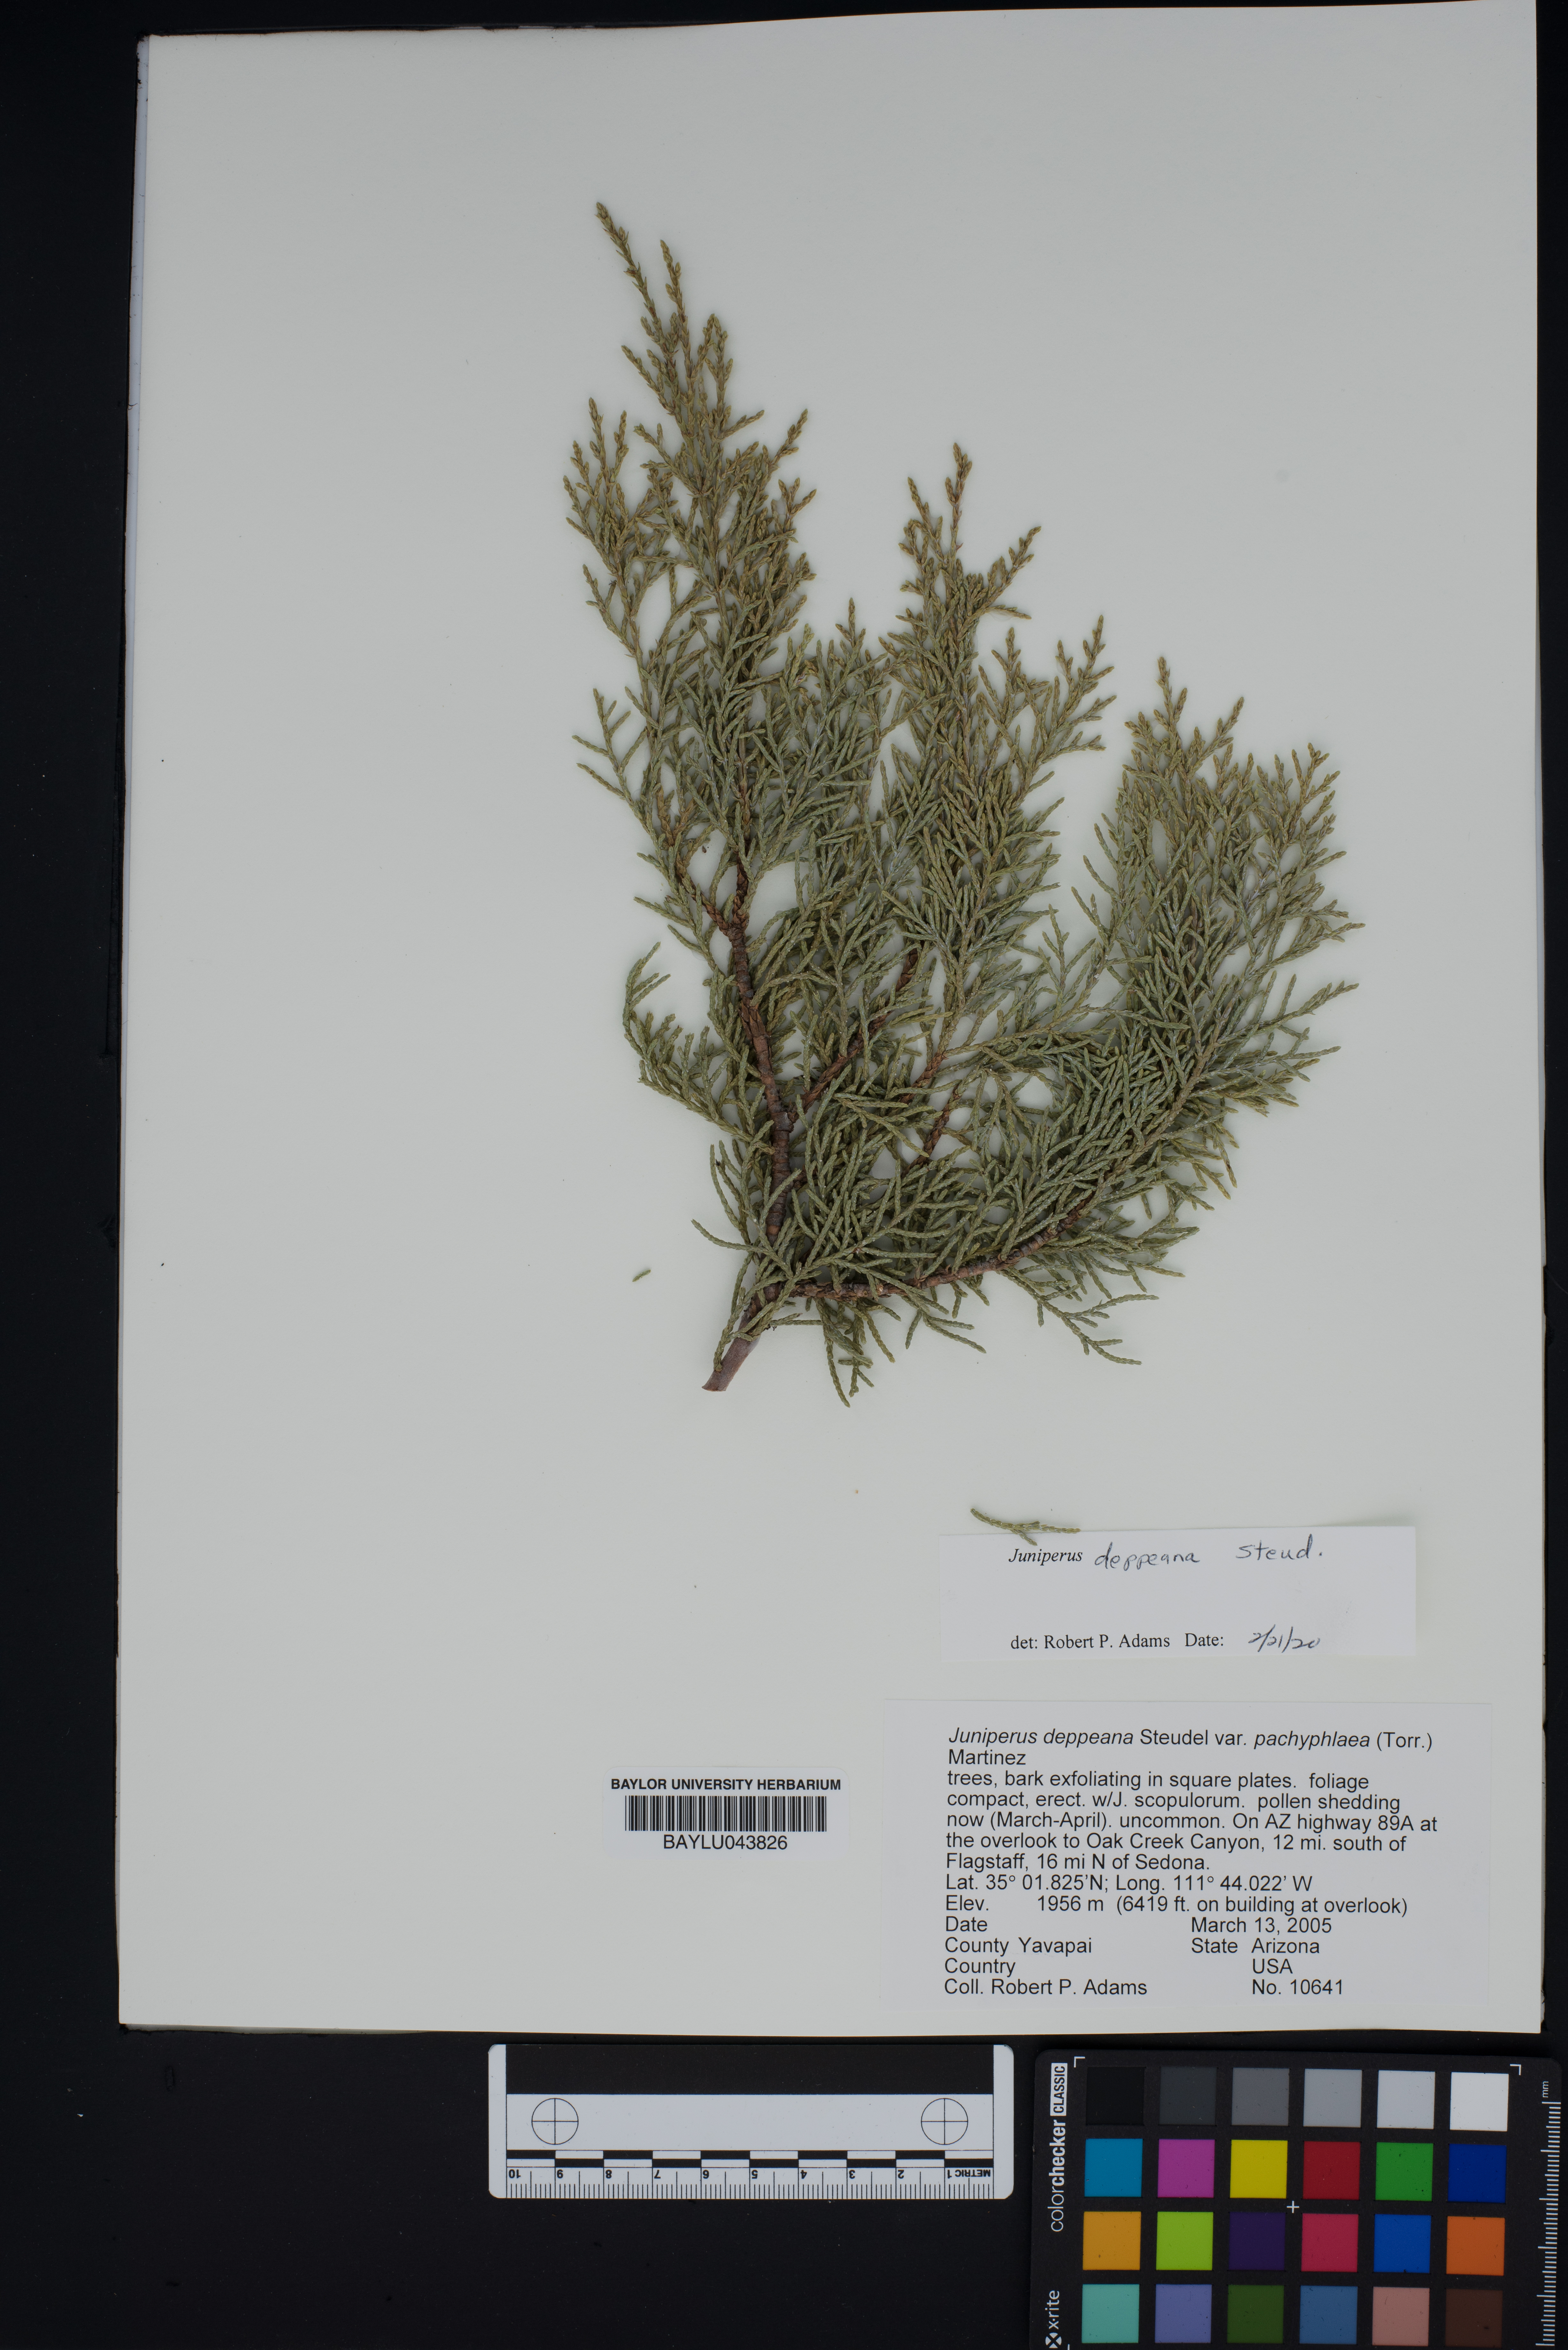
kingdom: Plantae
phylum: Tracheophyta
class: Pinopsida
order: Pinales
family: Cupressaceae
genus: Juniperus
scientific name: Juniperus deppeana
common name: Alligator juniper
